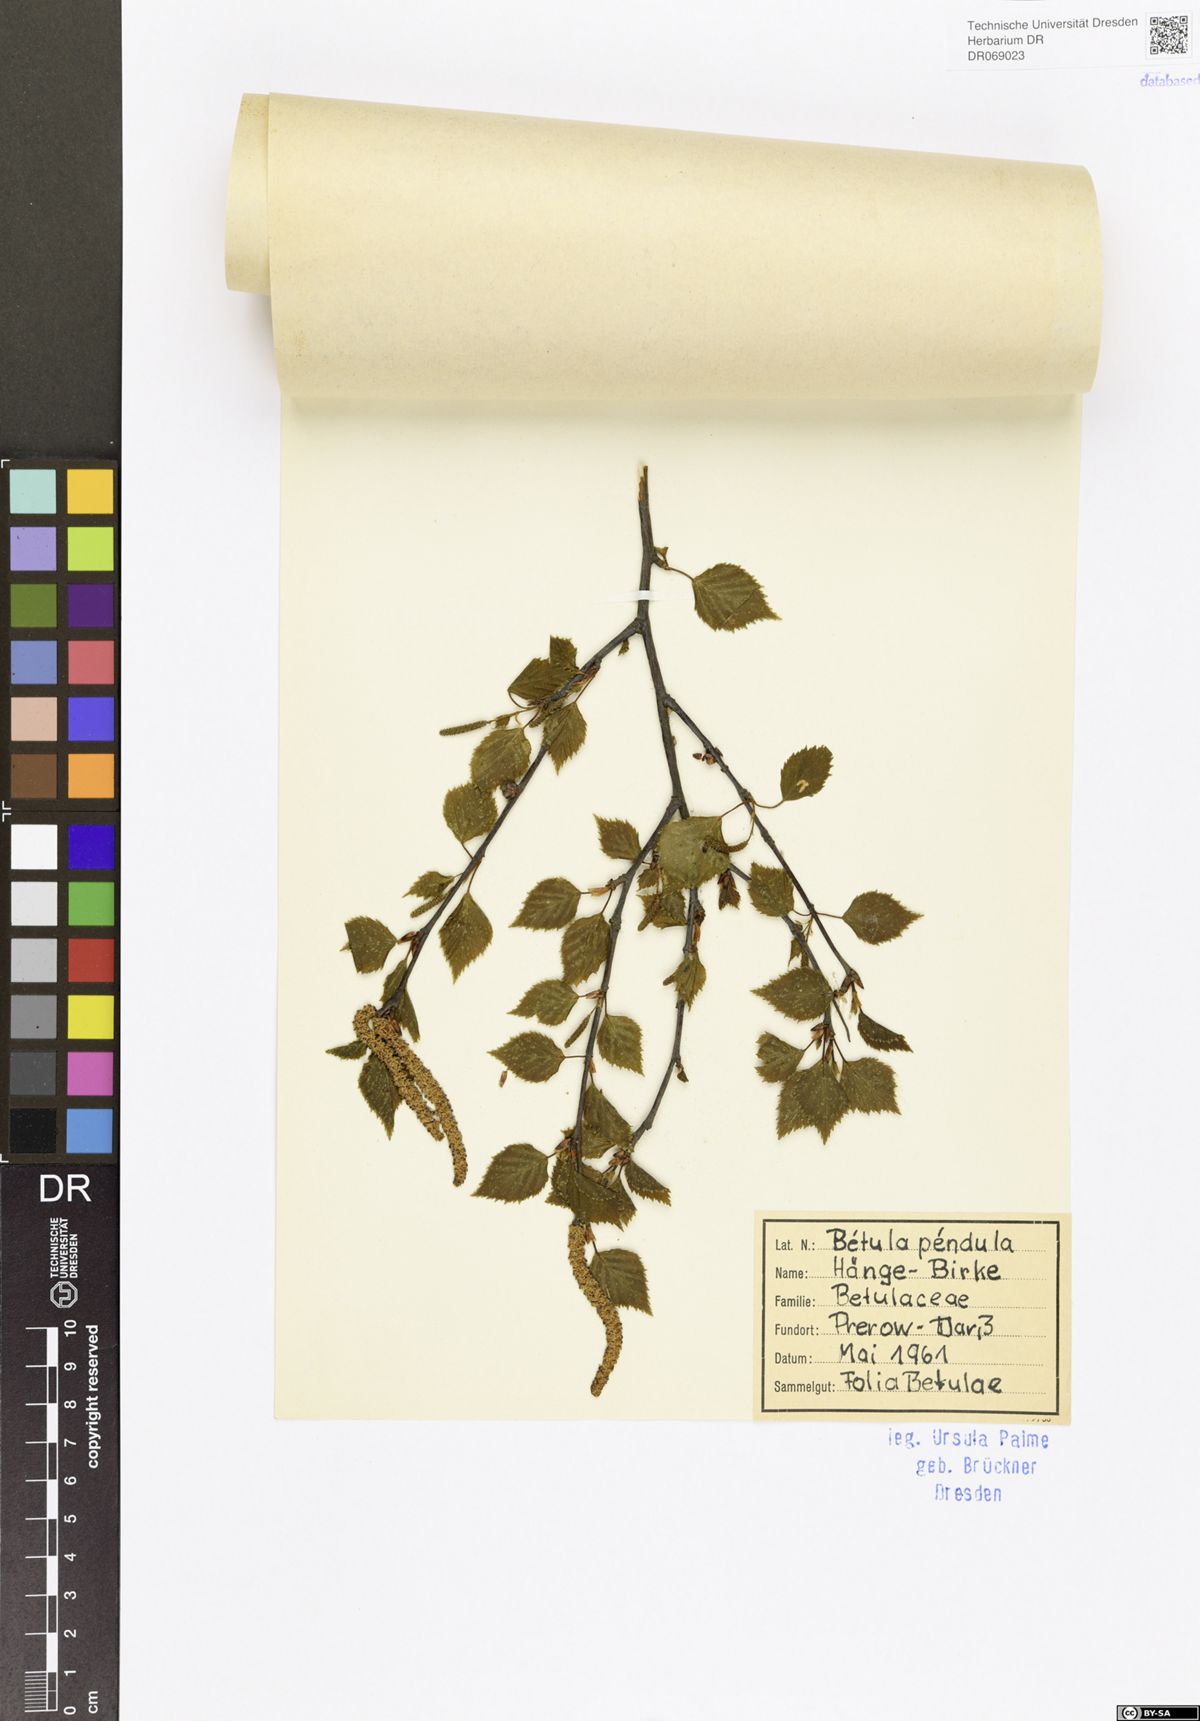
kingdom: Plantae
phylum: Tracheophyta
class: Magnoliopsida
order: Fagales
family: Betulaceae
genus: Betula
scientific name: Betula pendula
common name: Silver birch
